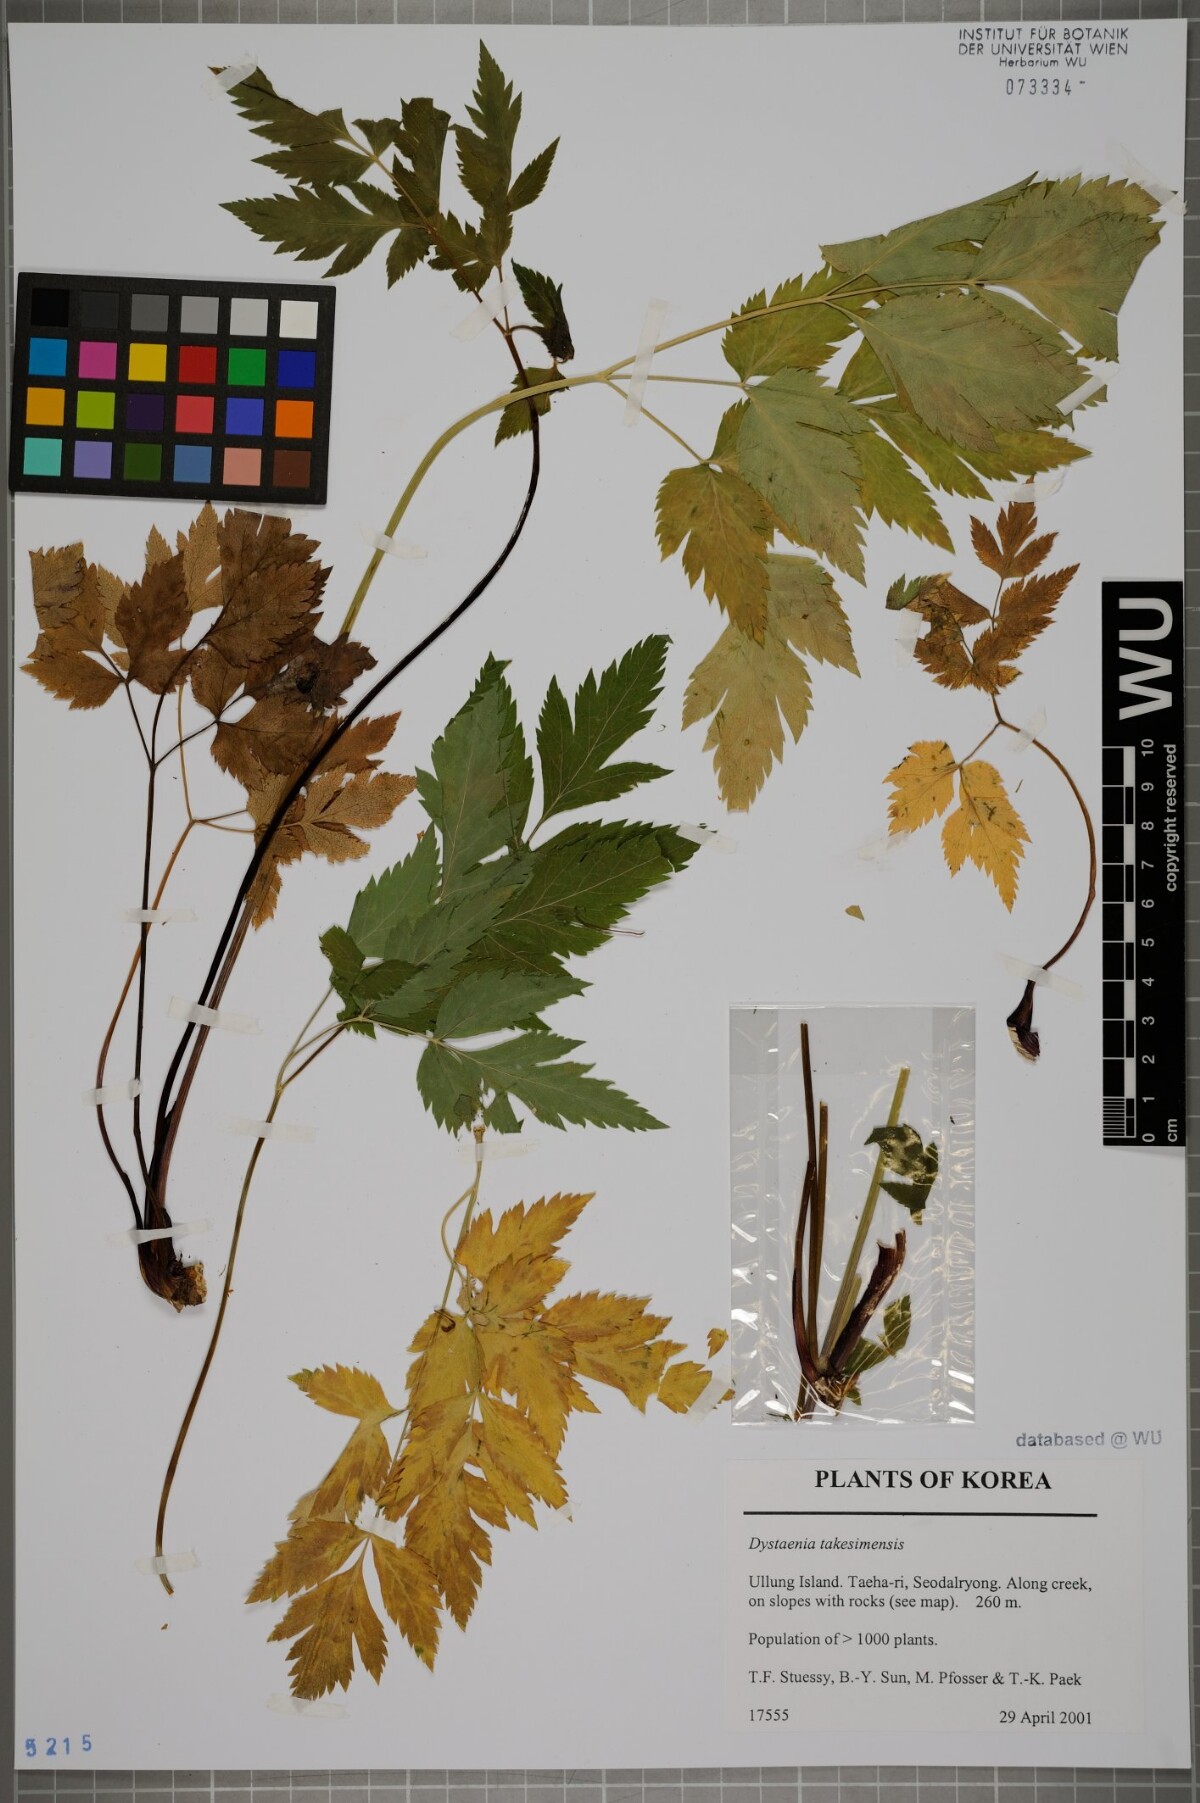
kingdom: Plantae
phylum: Tracheophyta
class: Magnoliopsida
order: Apiales
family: Apiaceae
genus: Dystaenia
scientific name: Dystaenia takeshimana
